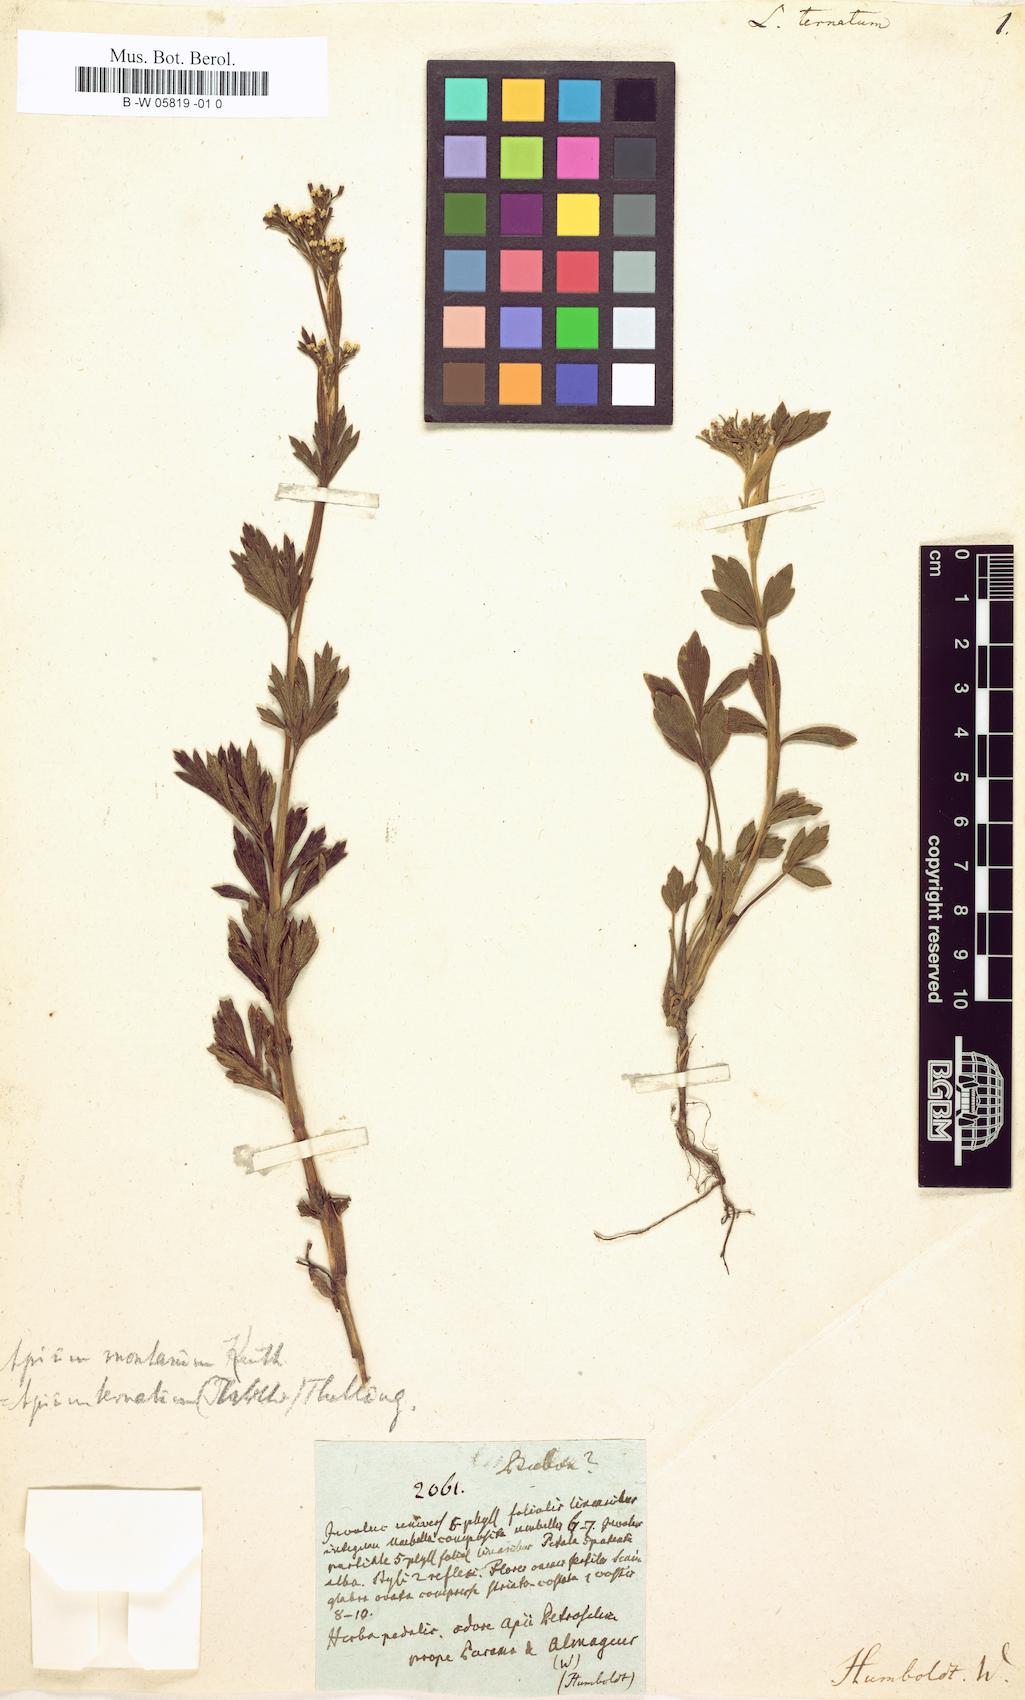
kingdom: Plantae
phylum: Tracheophyta
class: Magnoliopsida
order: Apiales
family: Apiaceae
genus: Niphogeton
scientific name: Niphogeton ternata
